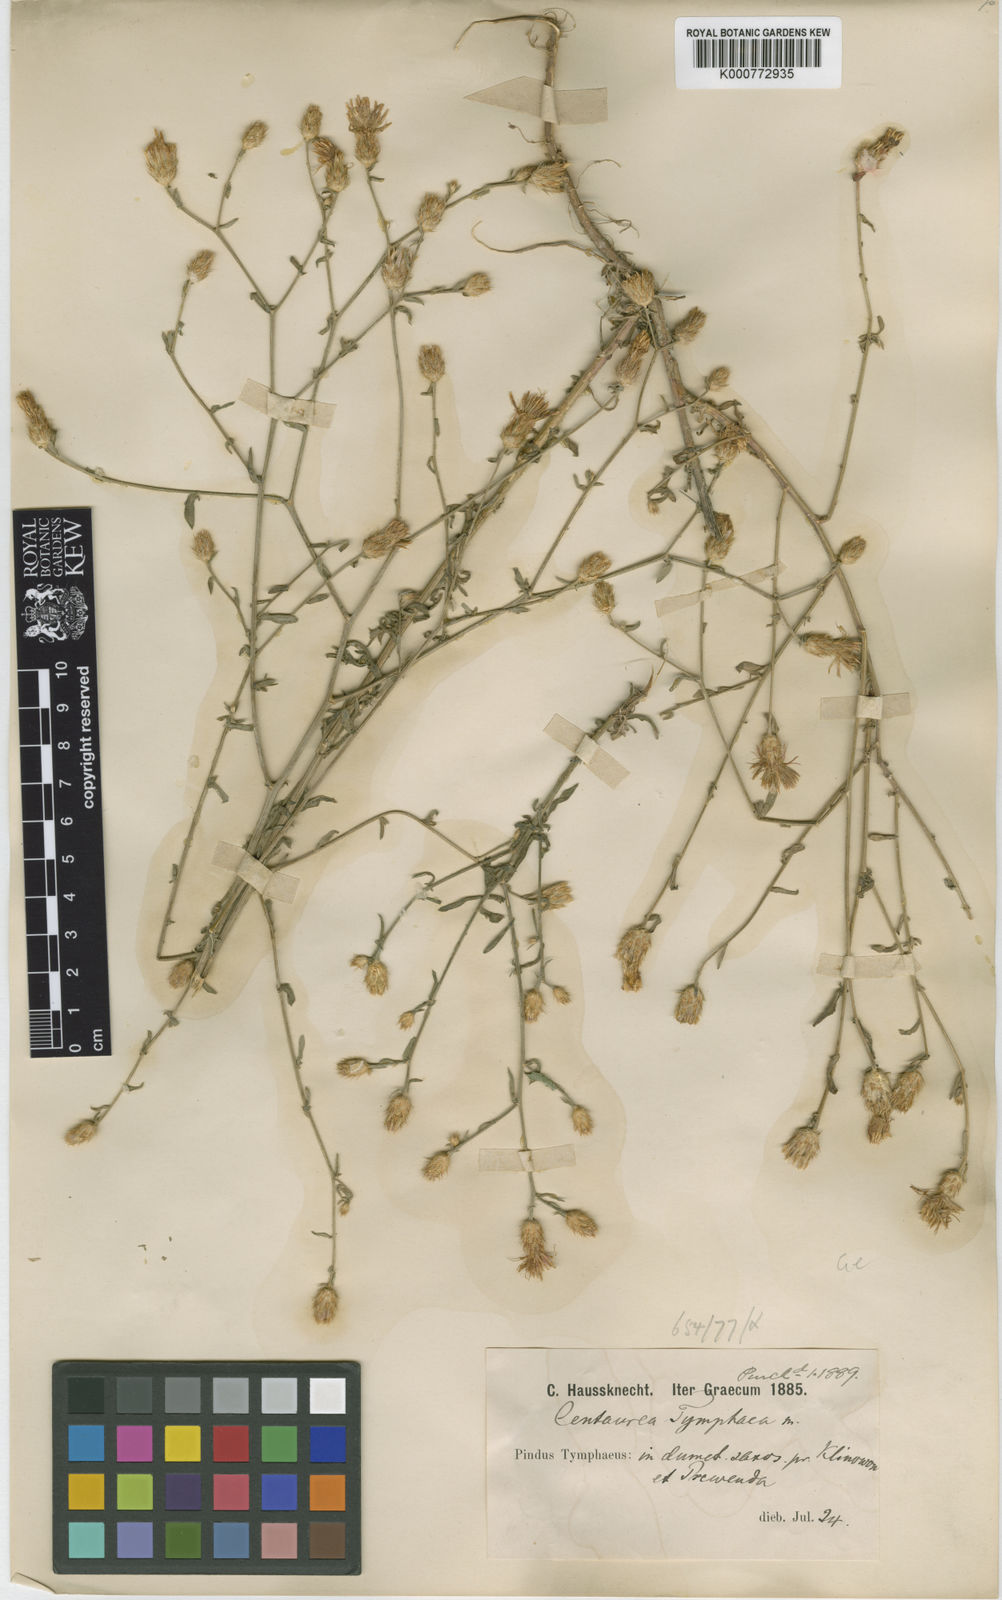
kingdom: Plantae
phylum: Tracheophyta
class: Magnoliopsida
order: Asterales
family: Asteraceae
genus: Centaurea
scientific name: Centaurea tymphaea
